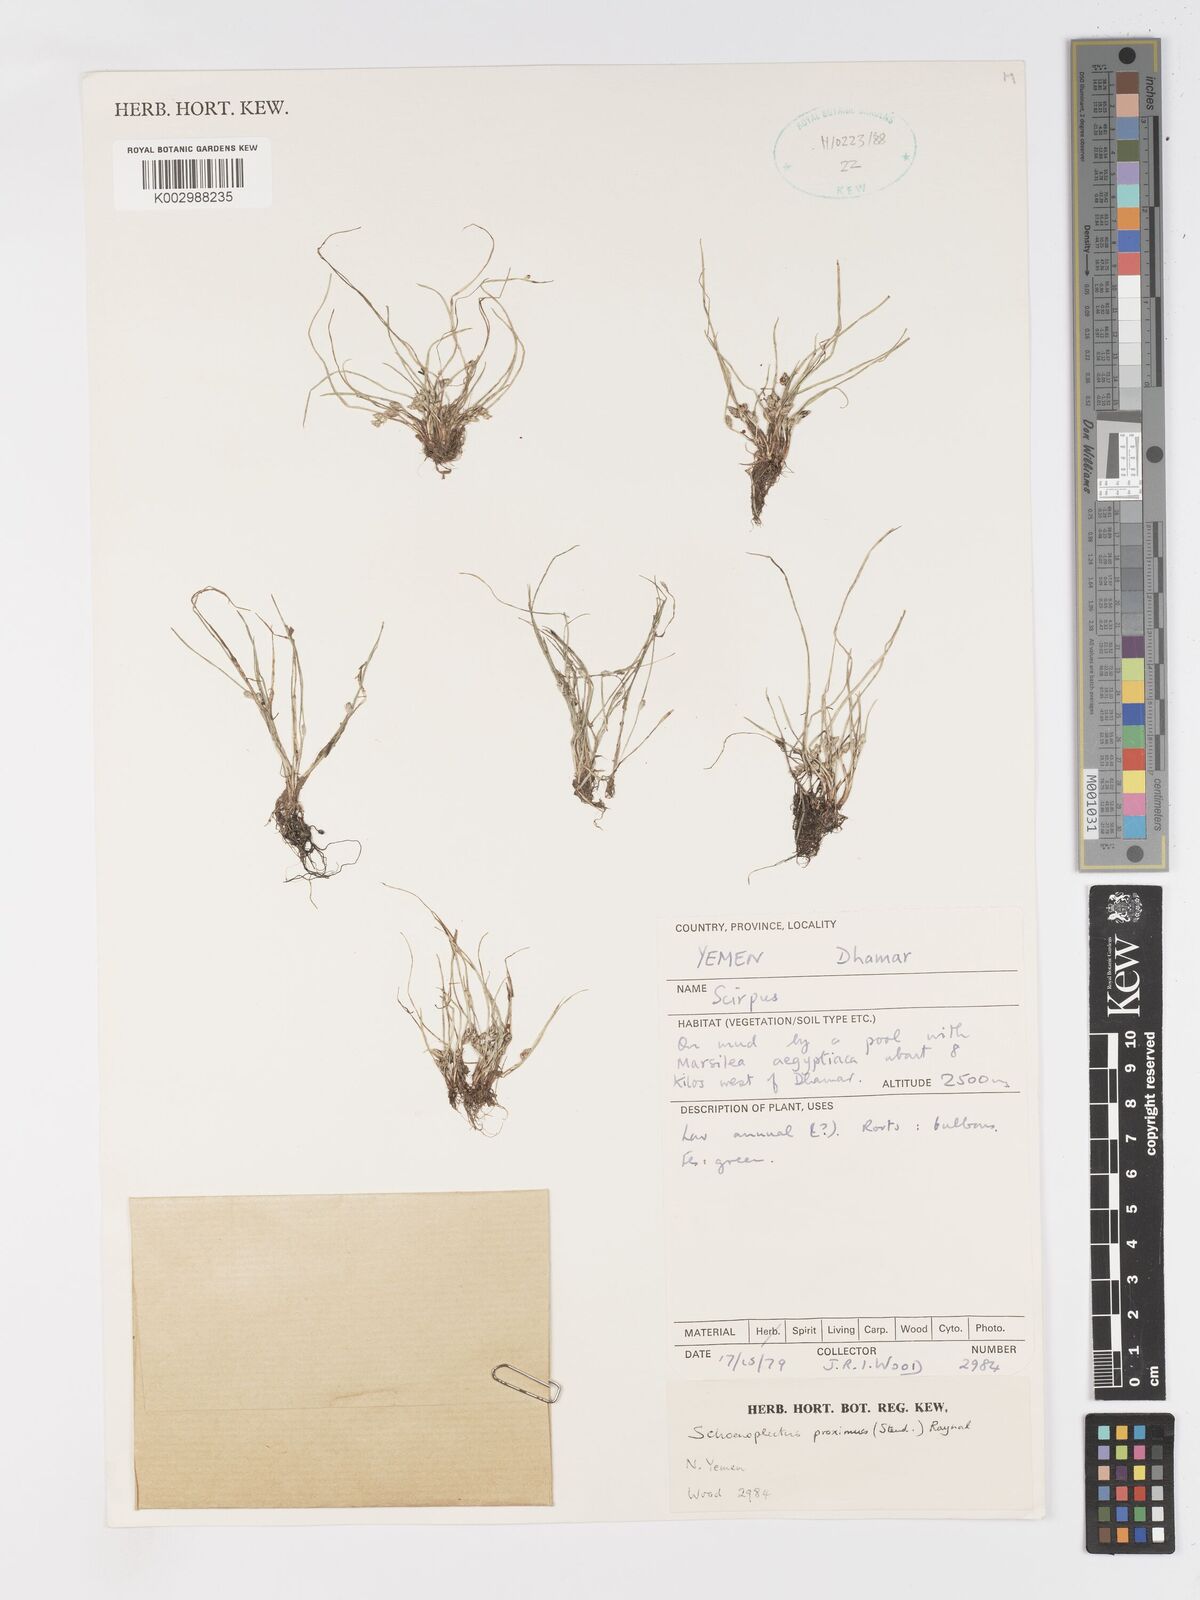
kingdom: Plantae
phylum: Tracheophyta
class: Liliopsida
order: Poales
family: Cyperaceae
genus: Schoenoplectiella
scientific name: Schoenoplectiella proxima
